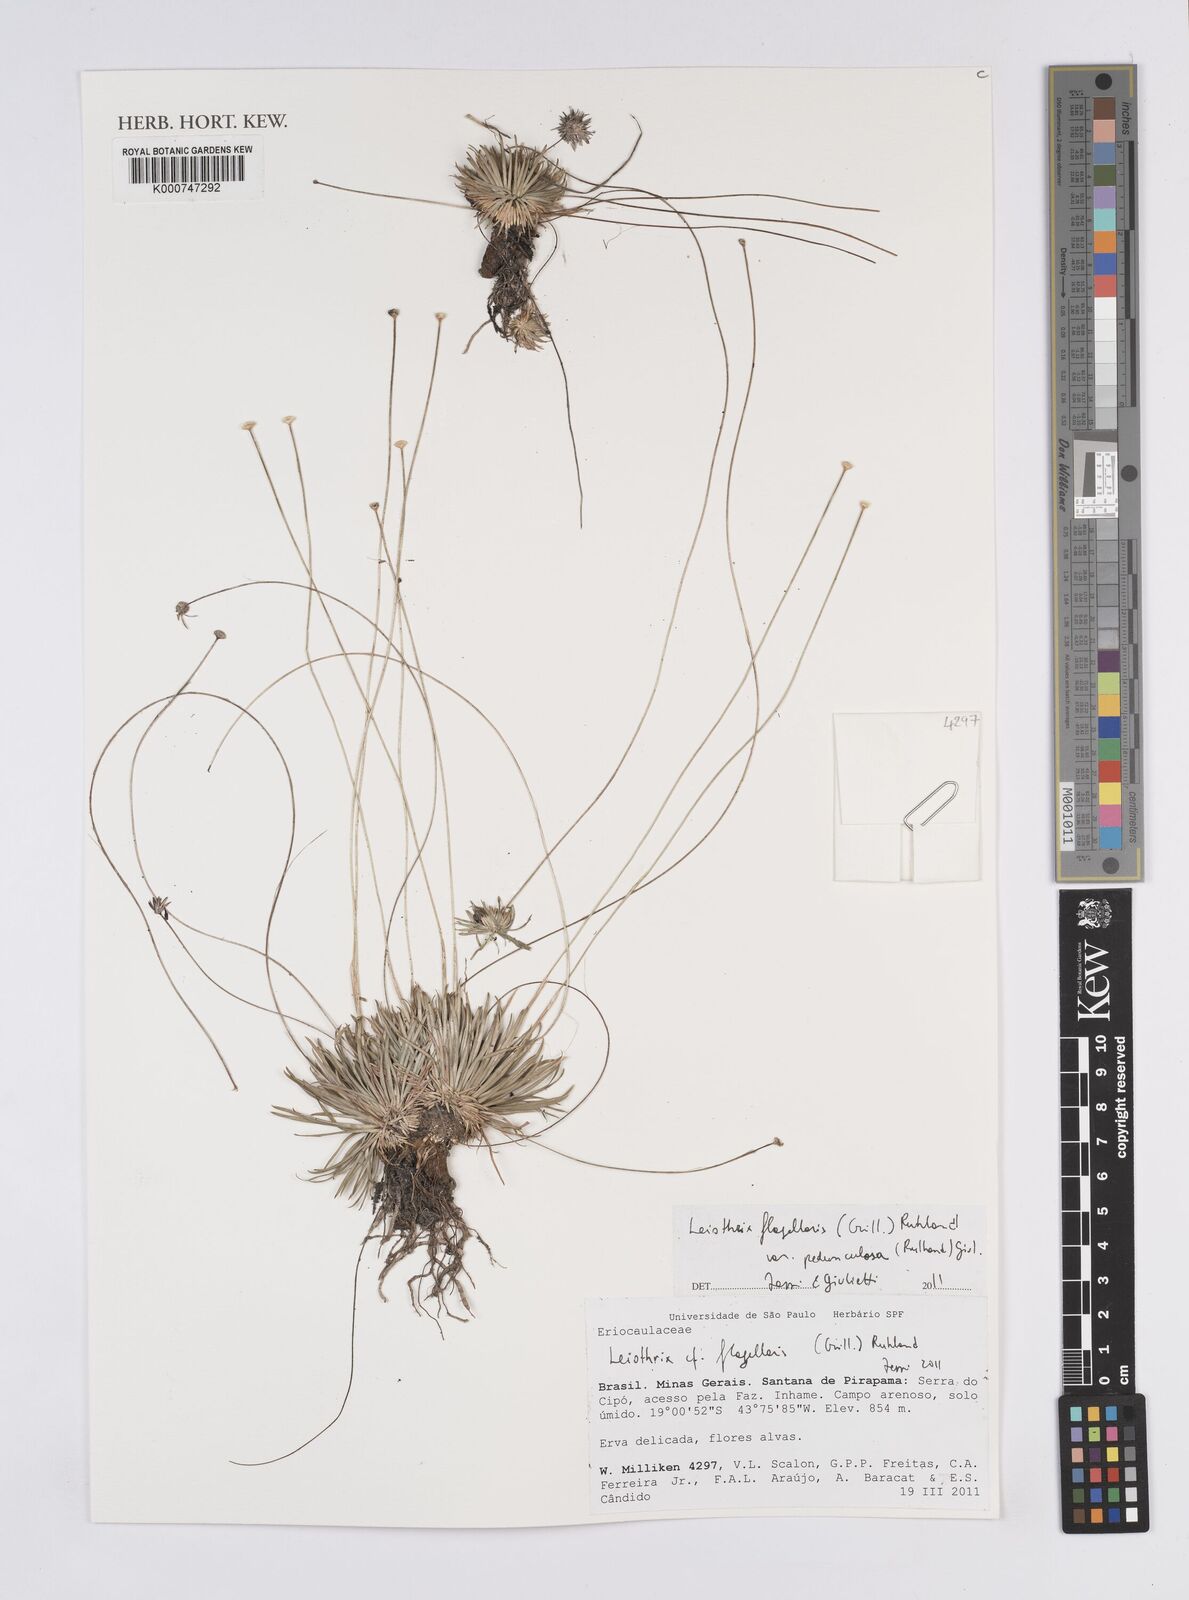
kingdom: Plantae
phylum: Tracheophyta
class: Liliopsida
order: Poales
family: Eriocaulaceae
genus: Leiothrix
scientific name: Leiothrix flagellaris
